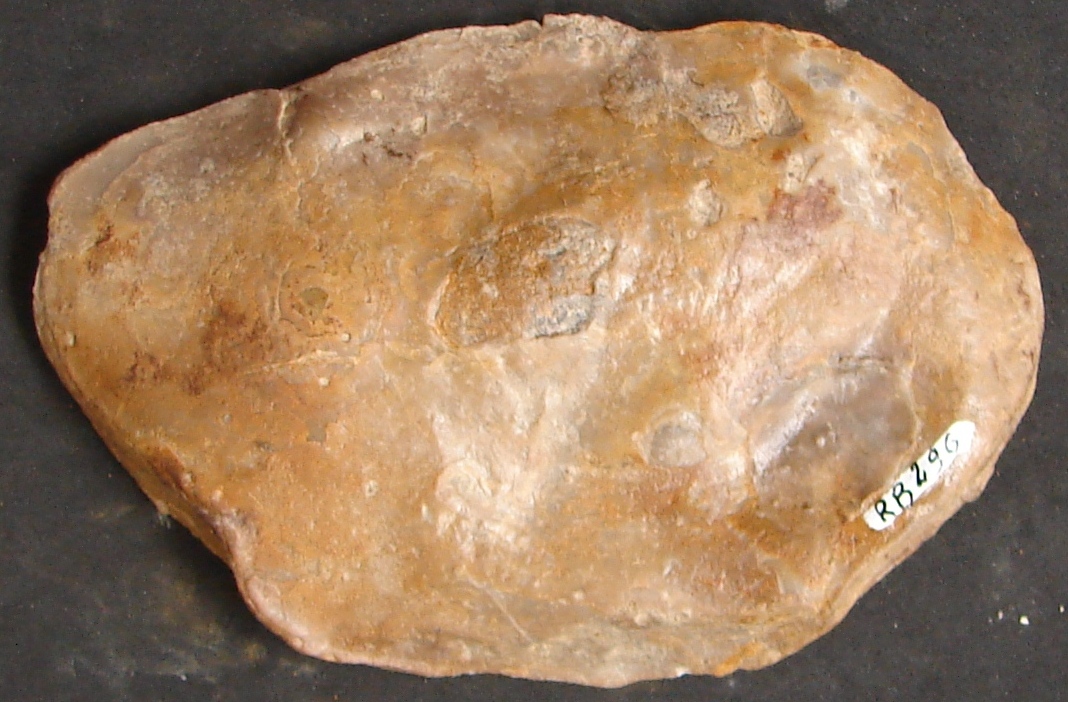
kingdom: Animalia
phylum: Mollusca
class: Bivalvia
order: Ostreida
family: Ostreidae
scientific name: Ostreidae
